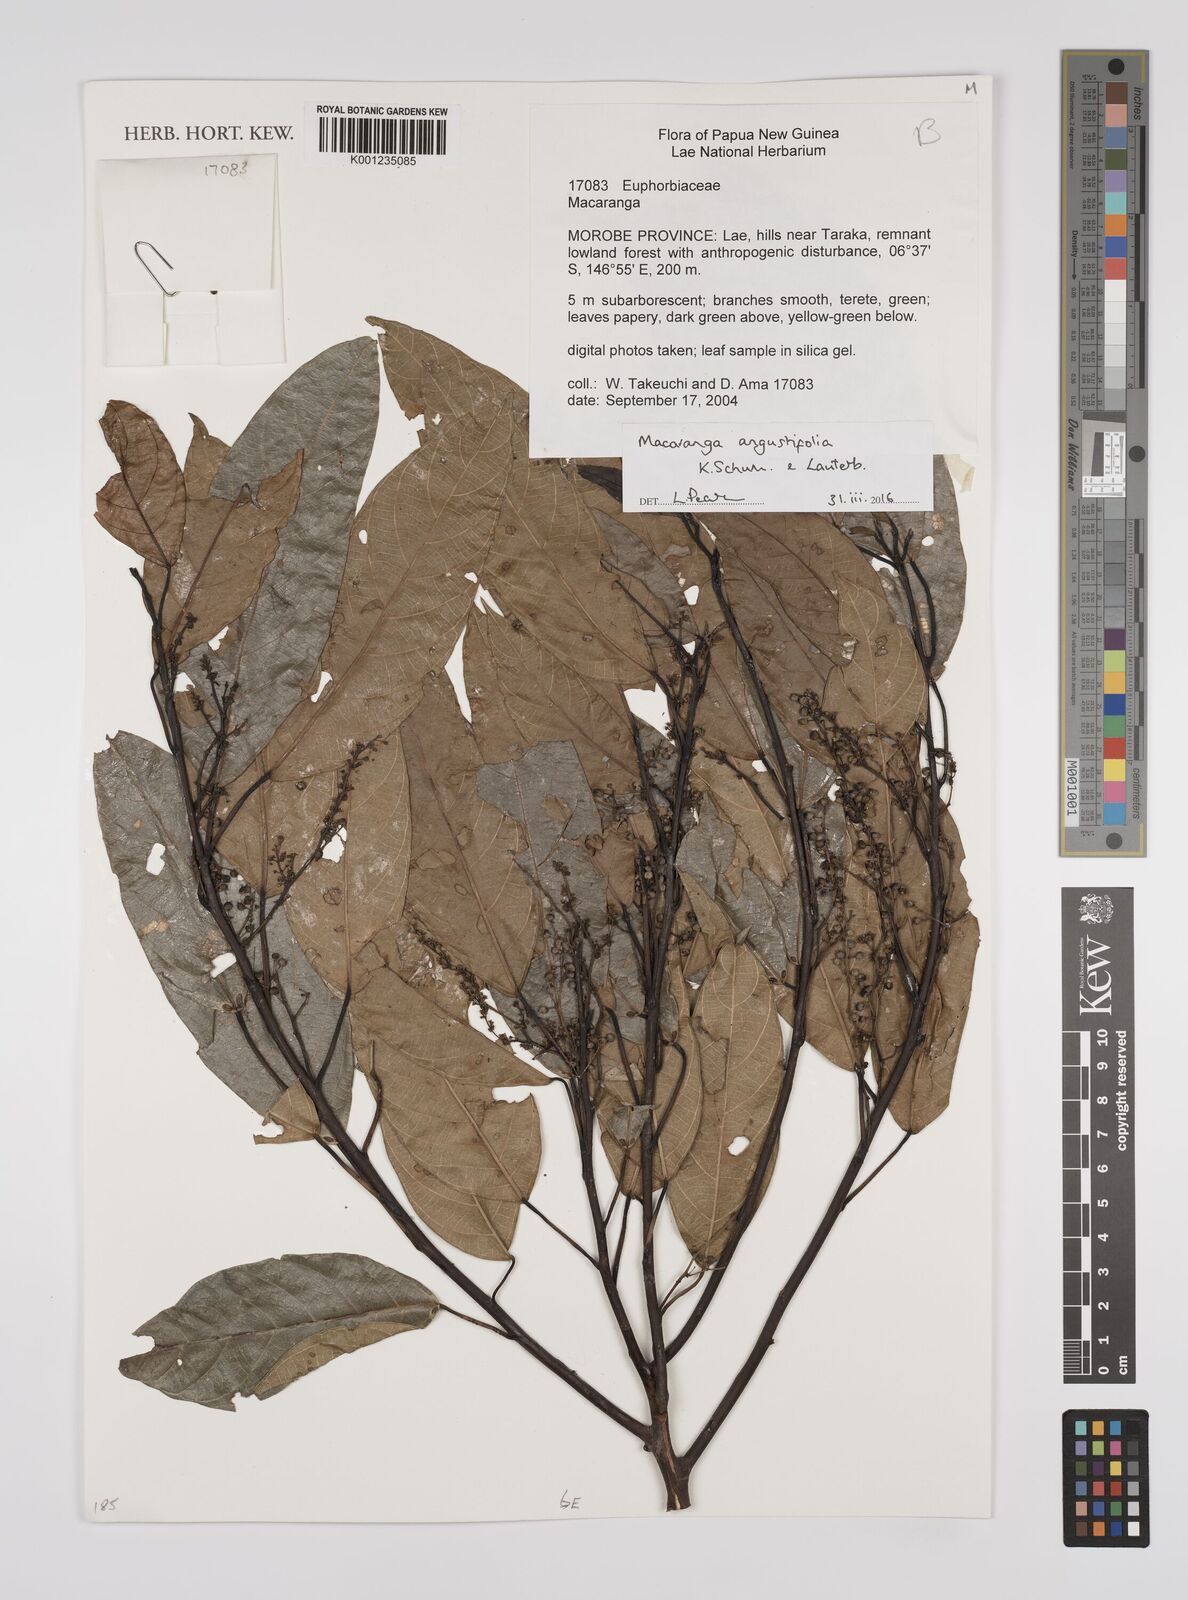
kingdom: Plantae
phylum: Tracheophyta
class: Magnoliopsida
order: Malpighiales
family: Euphorbiaceae
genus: Macaranga
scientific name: Macaranga angustifolia
